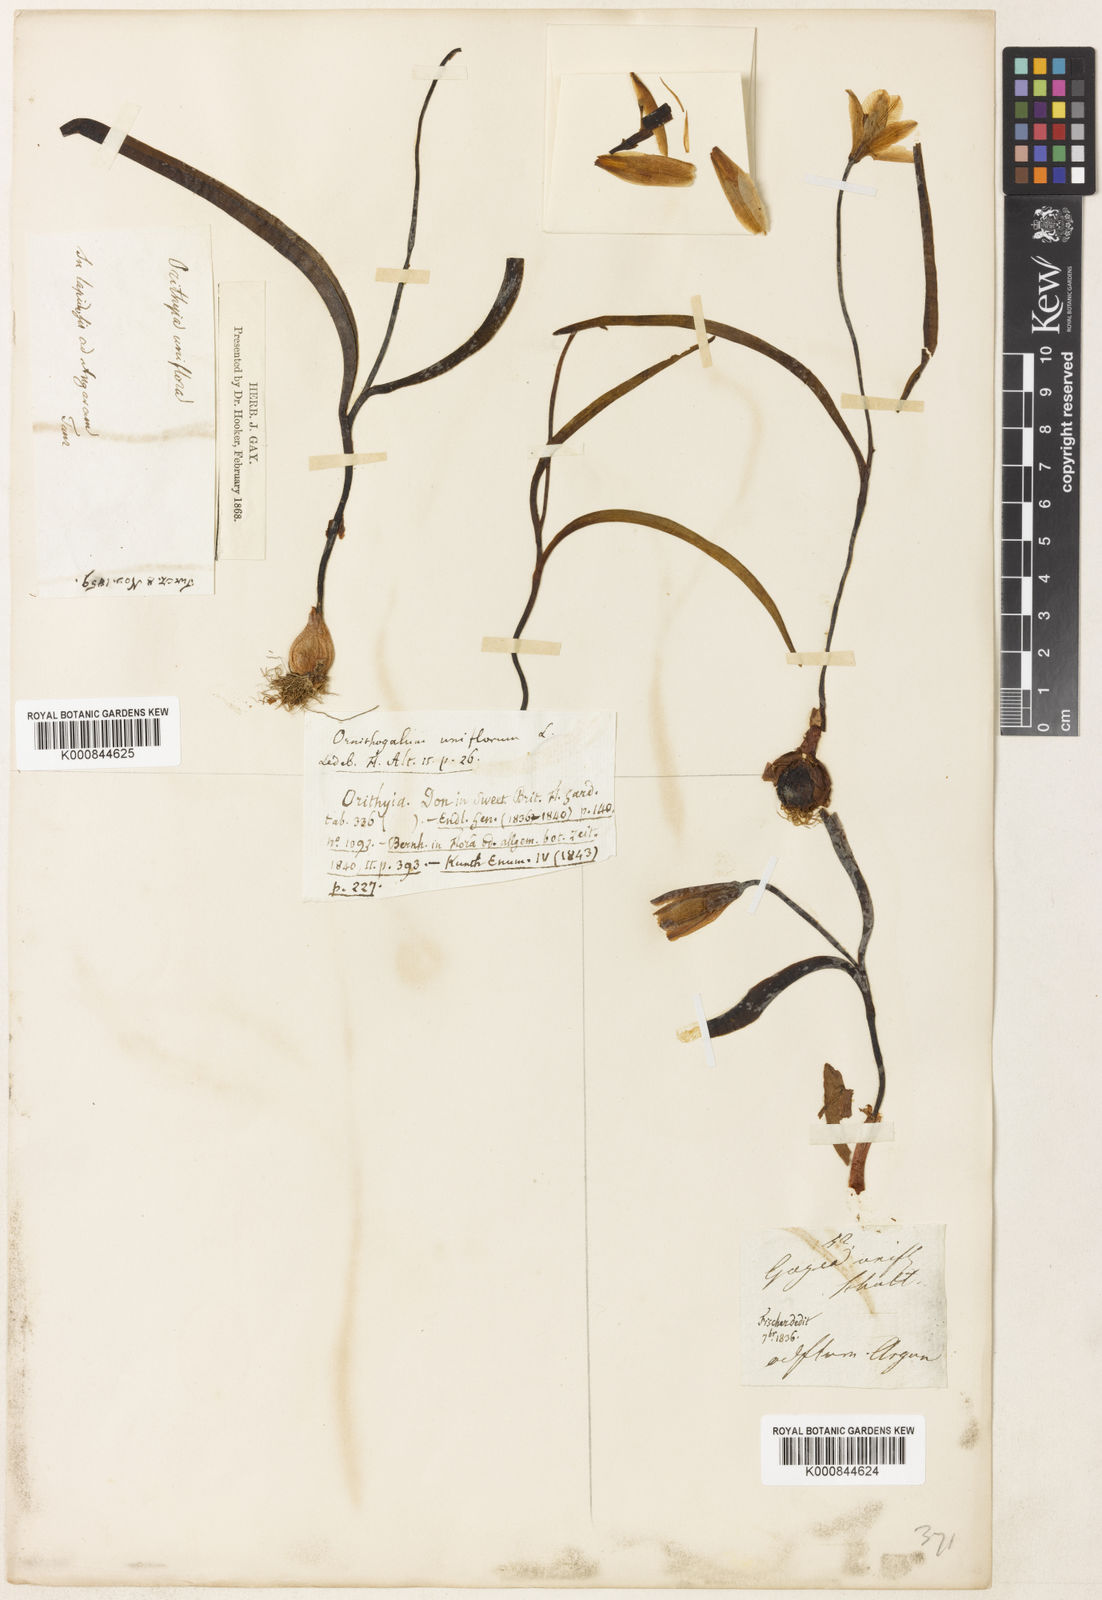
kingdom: Plantae
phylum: Tracheophyta
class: Liliopsida
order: Liliales
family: Liliaceae
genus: Tulipa
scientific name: Tulipa uniflora
